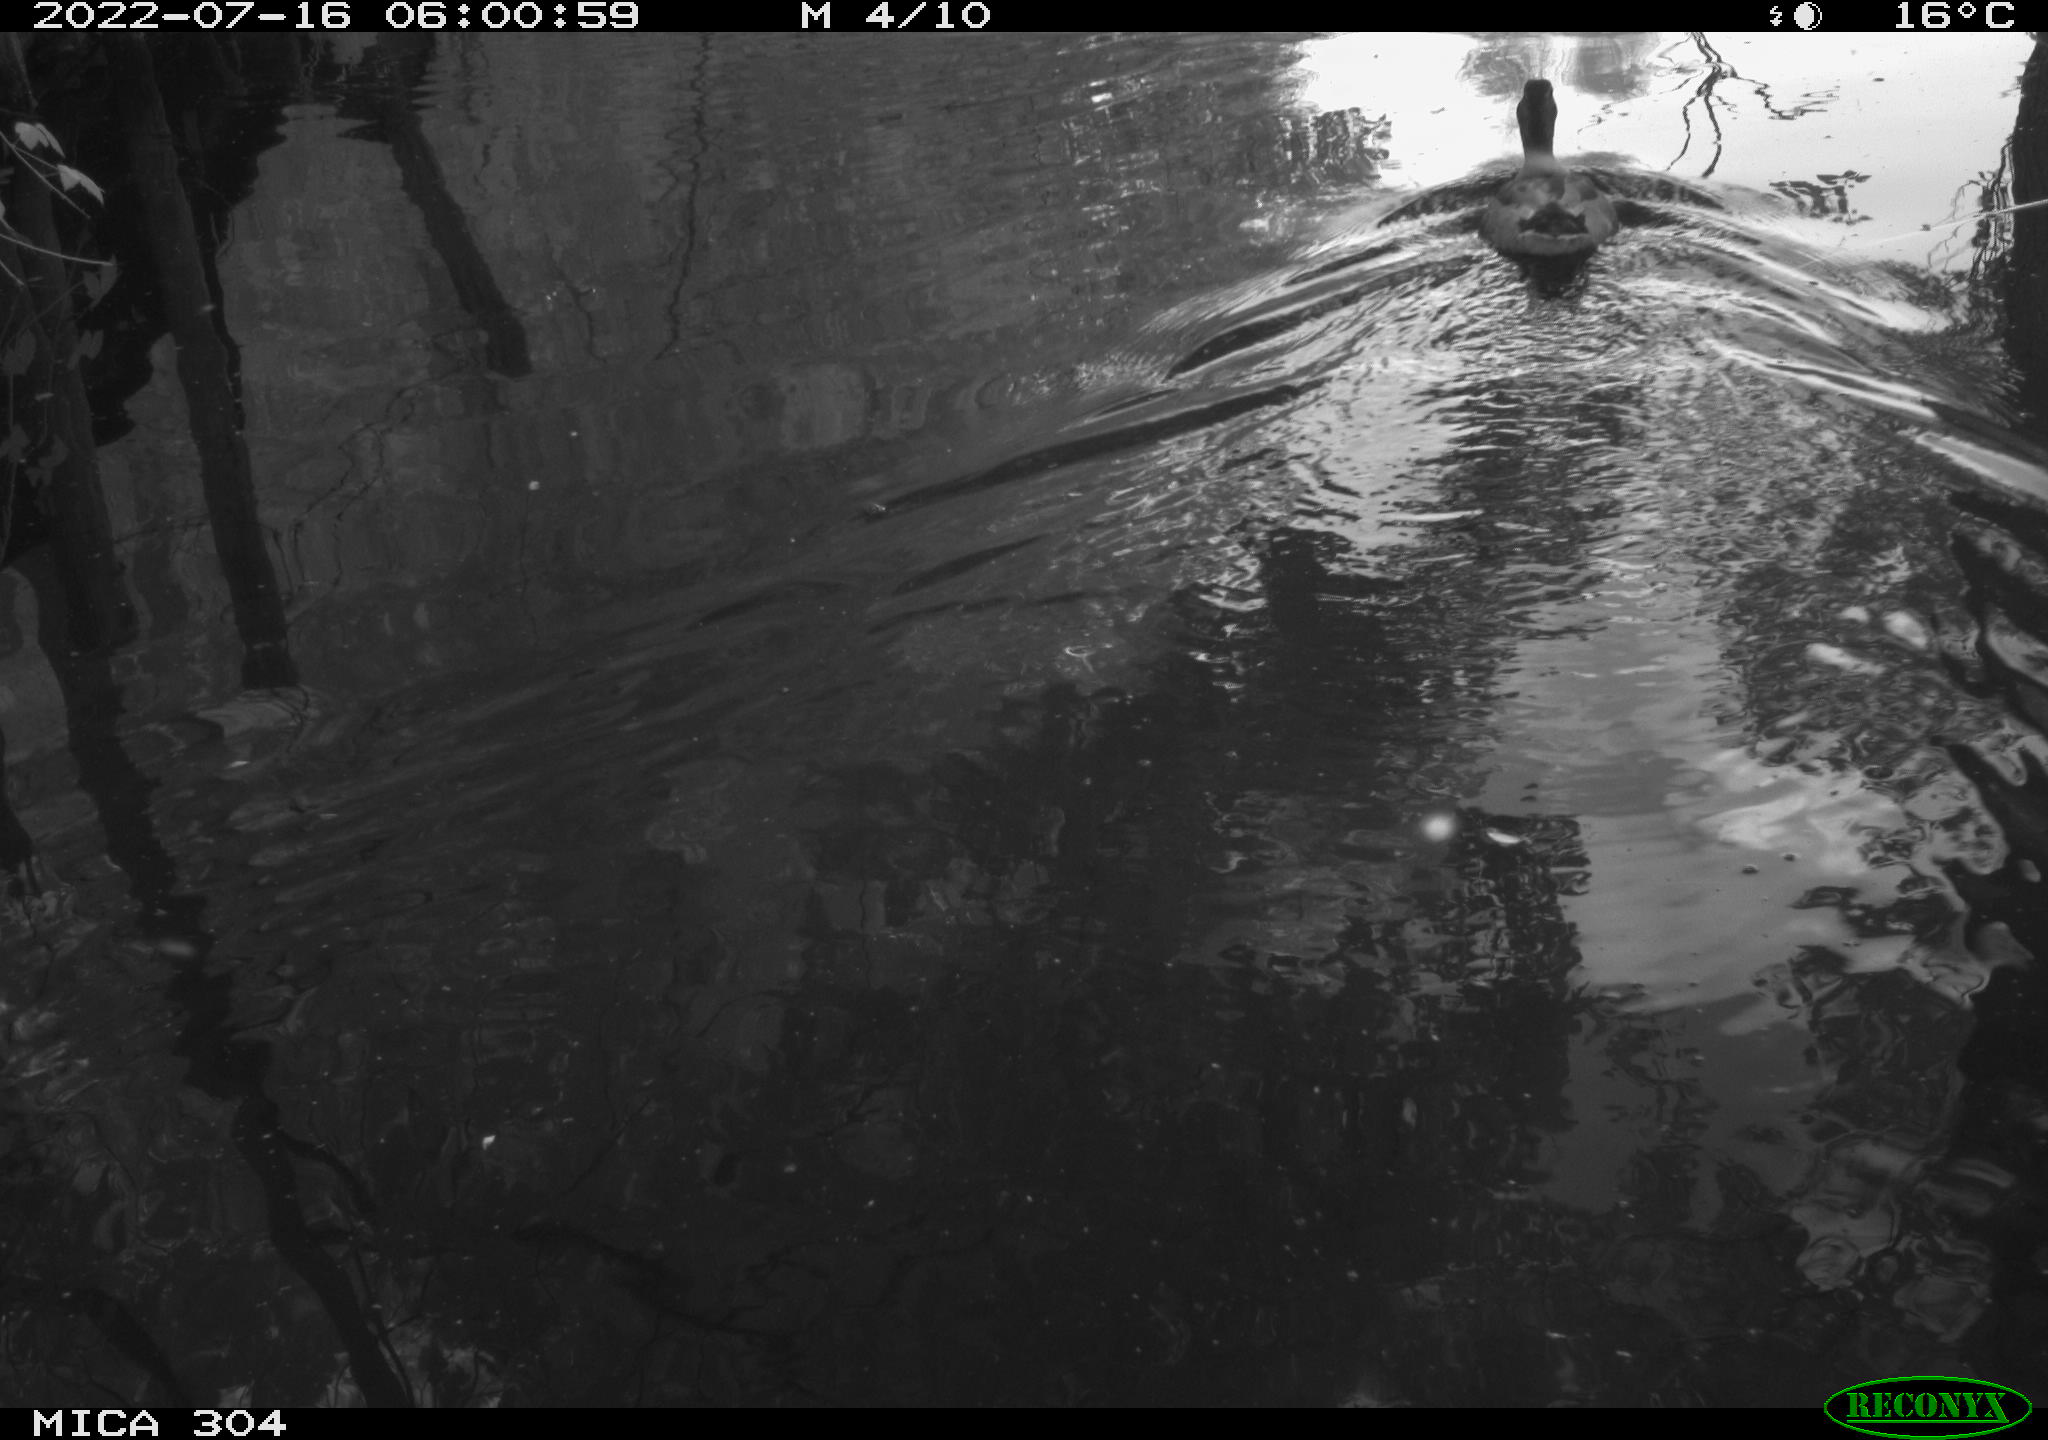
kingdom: Animalia
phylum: Chordata
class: Aves
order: Anseriformes
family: Anatidae
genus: Anas
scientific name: Anas platyrhynchos
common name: Mallard
